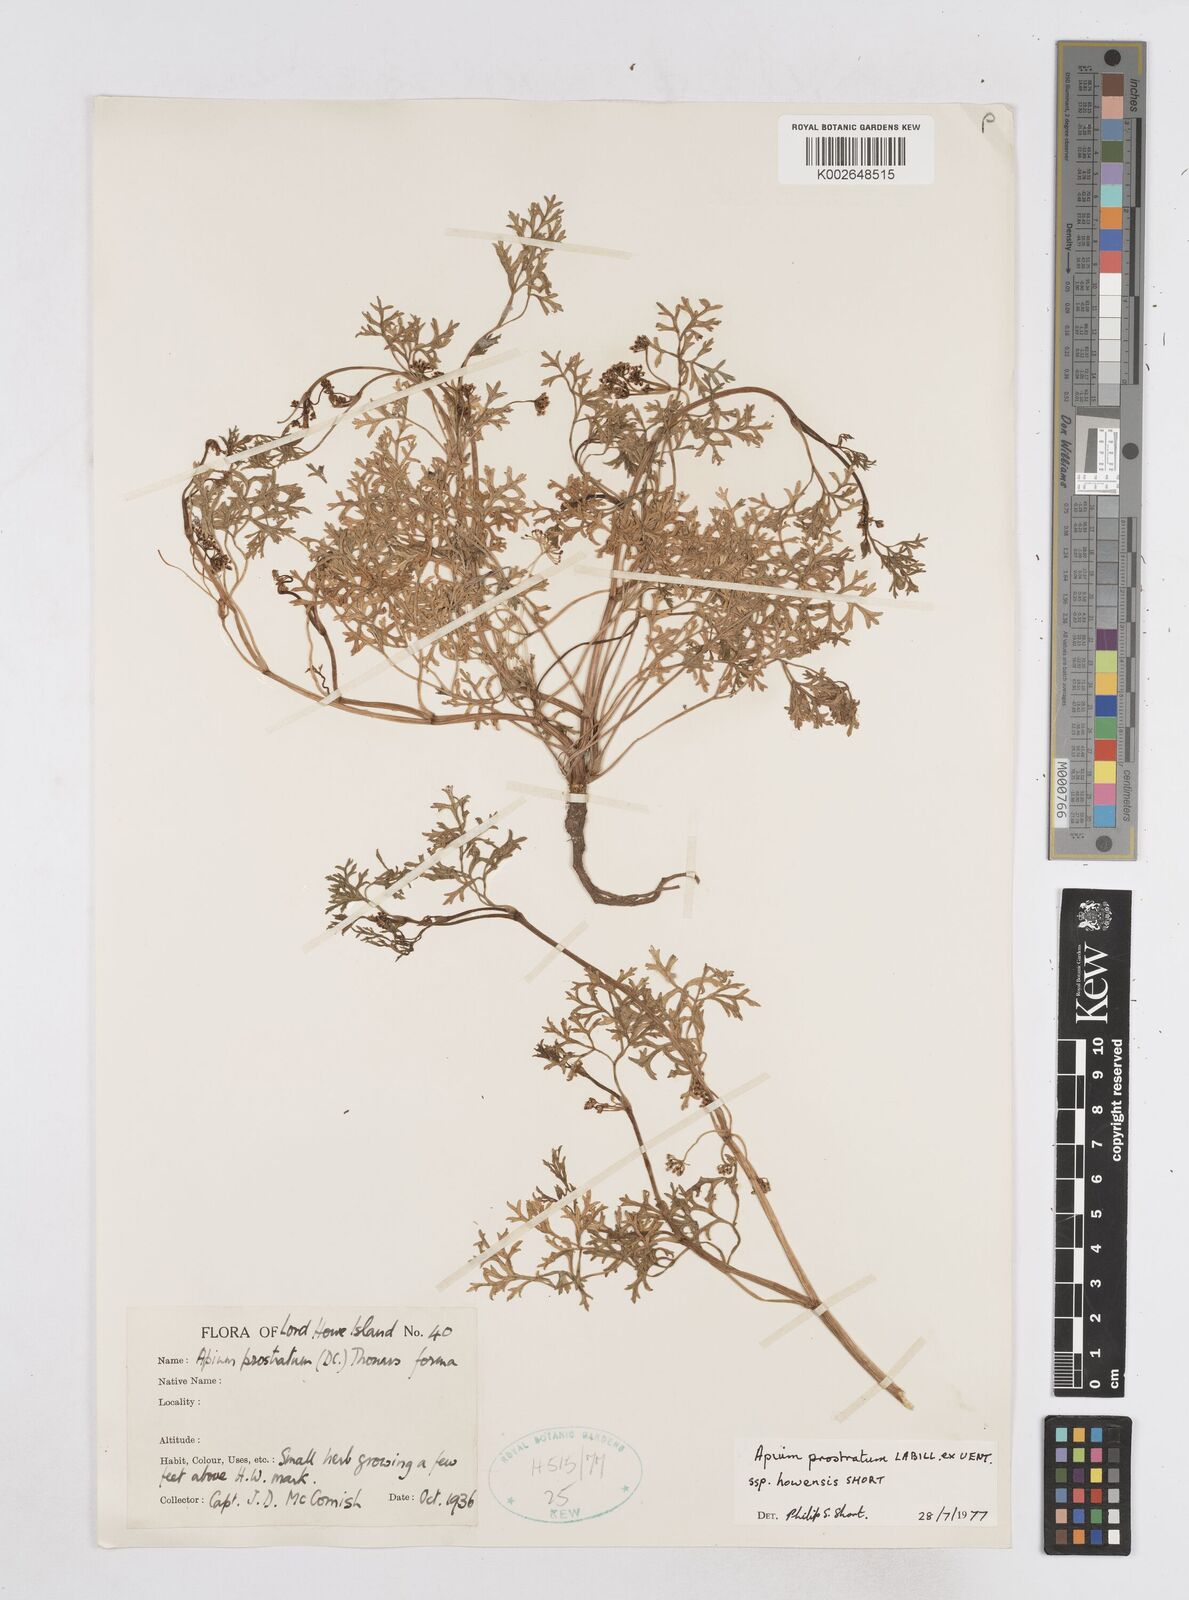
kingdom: Plantae
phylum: Tracheophyta
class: Magnoliopsida
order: Apiales
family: Apiaceae
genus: Apium
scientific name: Apium prostratum
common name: Prostrate marshwort
